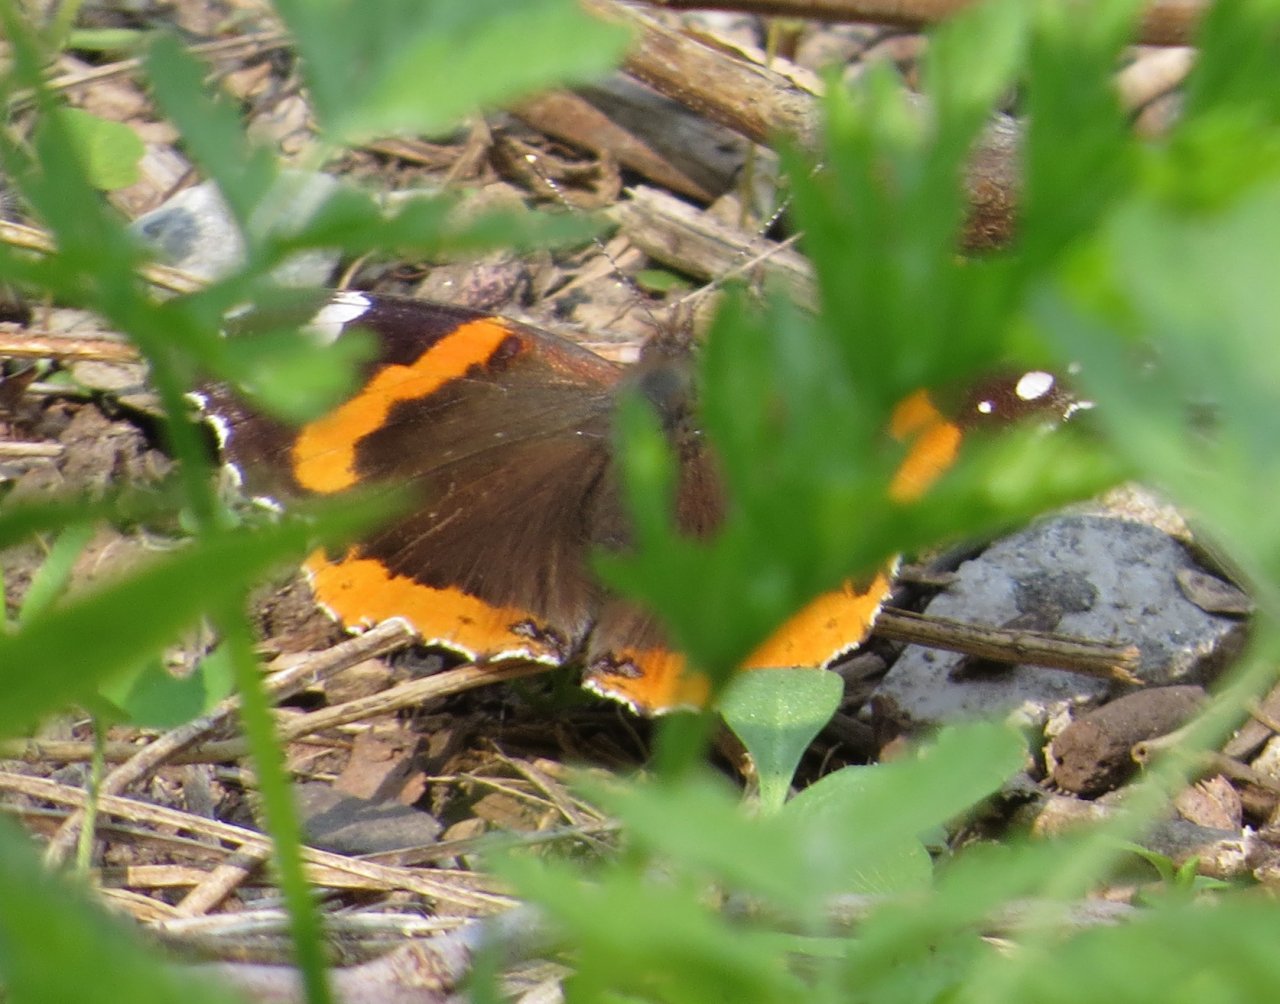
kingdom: Animalia
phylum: Arthropoda
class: Insecta
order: Lepidoptera
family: Nymphalidae
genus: Vanessa
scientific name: Vanessa atalanta
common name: Red Admiral
